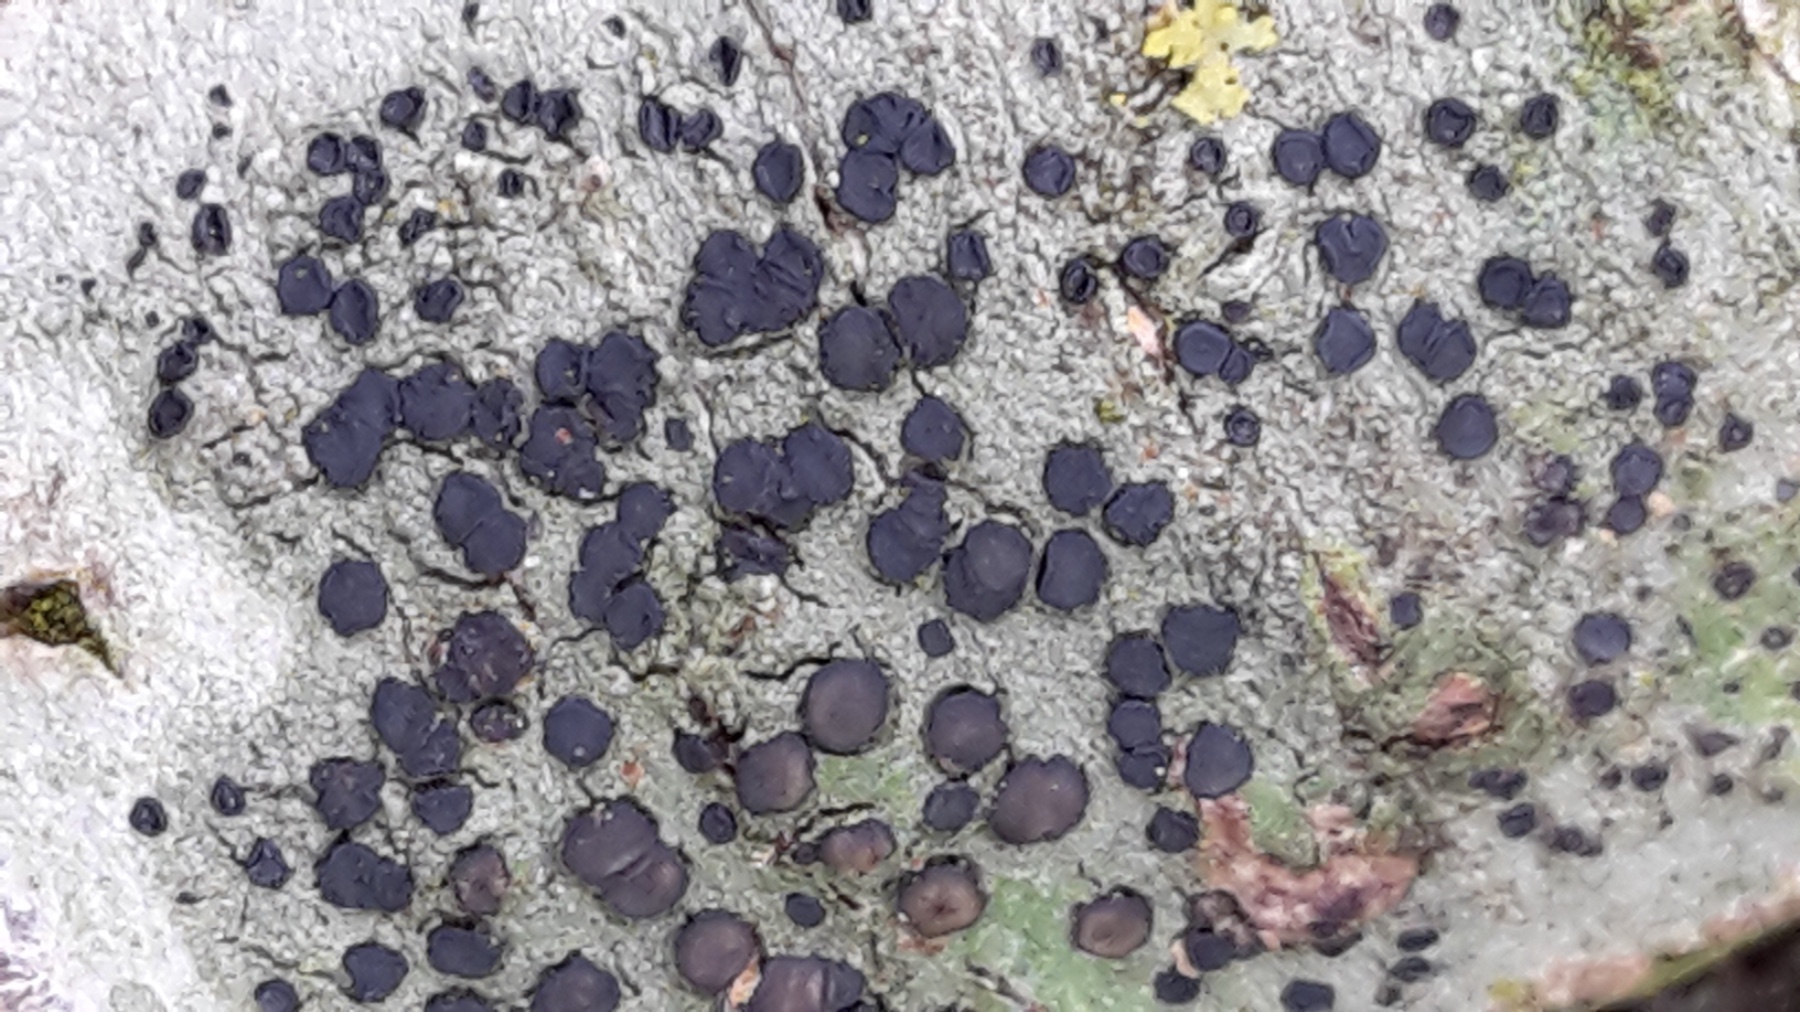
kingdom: Fungi
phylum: Ascomycota
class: Lecanoromycetes
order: Lecanorales
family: Lecanoraceae
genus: Lecidella
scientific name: Lecidella elaeochroma
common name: grågrøn skivelav
